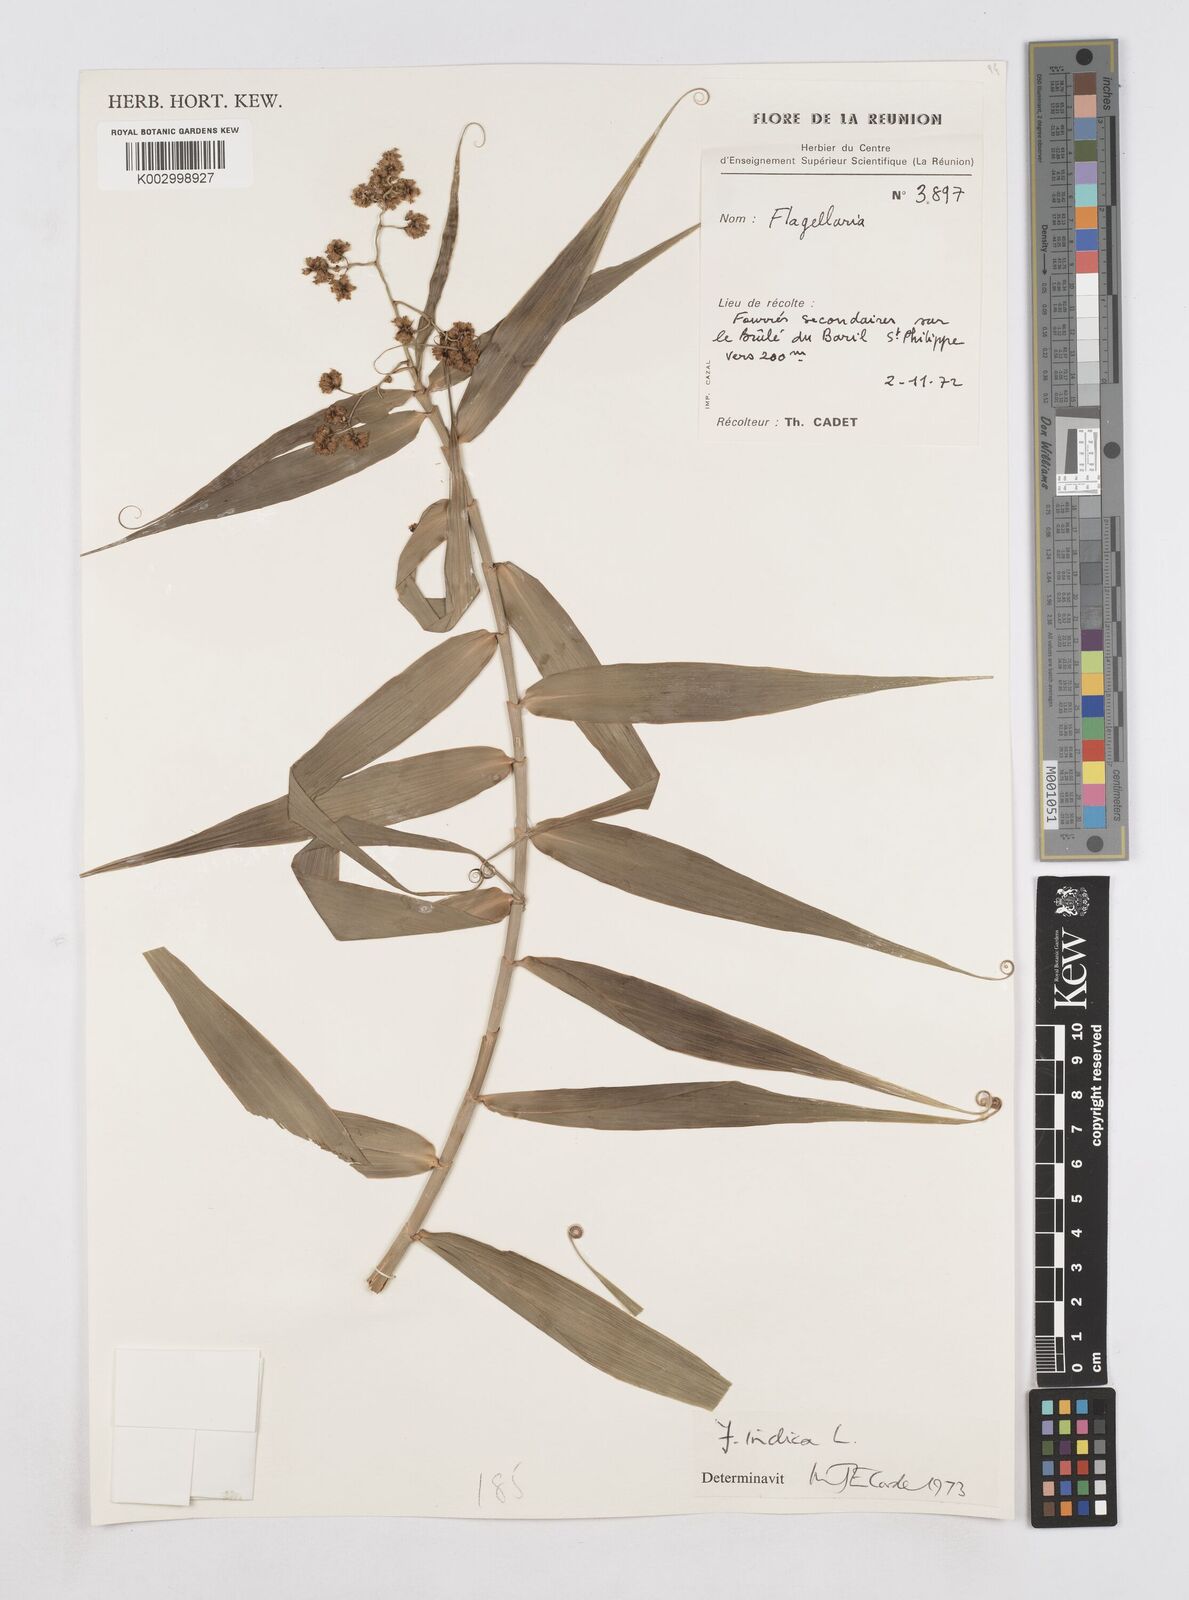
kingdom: Plantae
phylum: Tracheophyta
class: Liliopsida
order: Poales
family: Flagellariaceae
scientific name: Flagellariaceae
